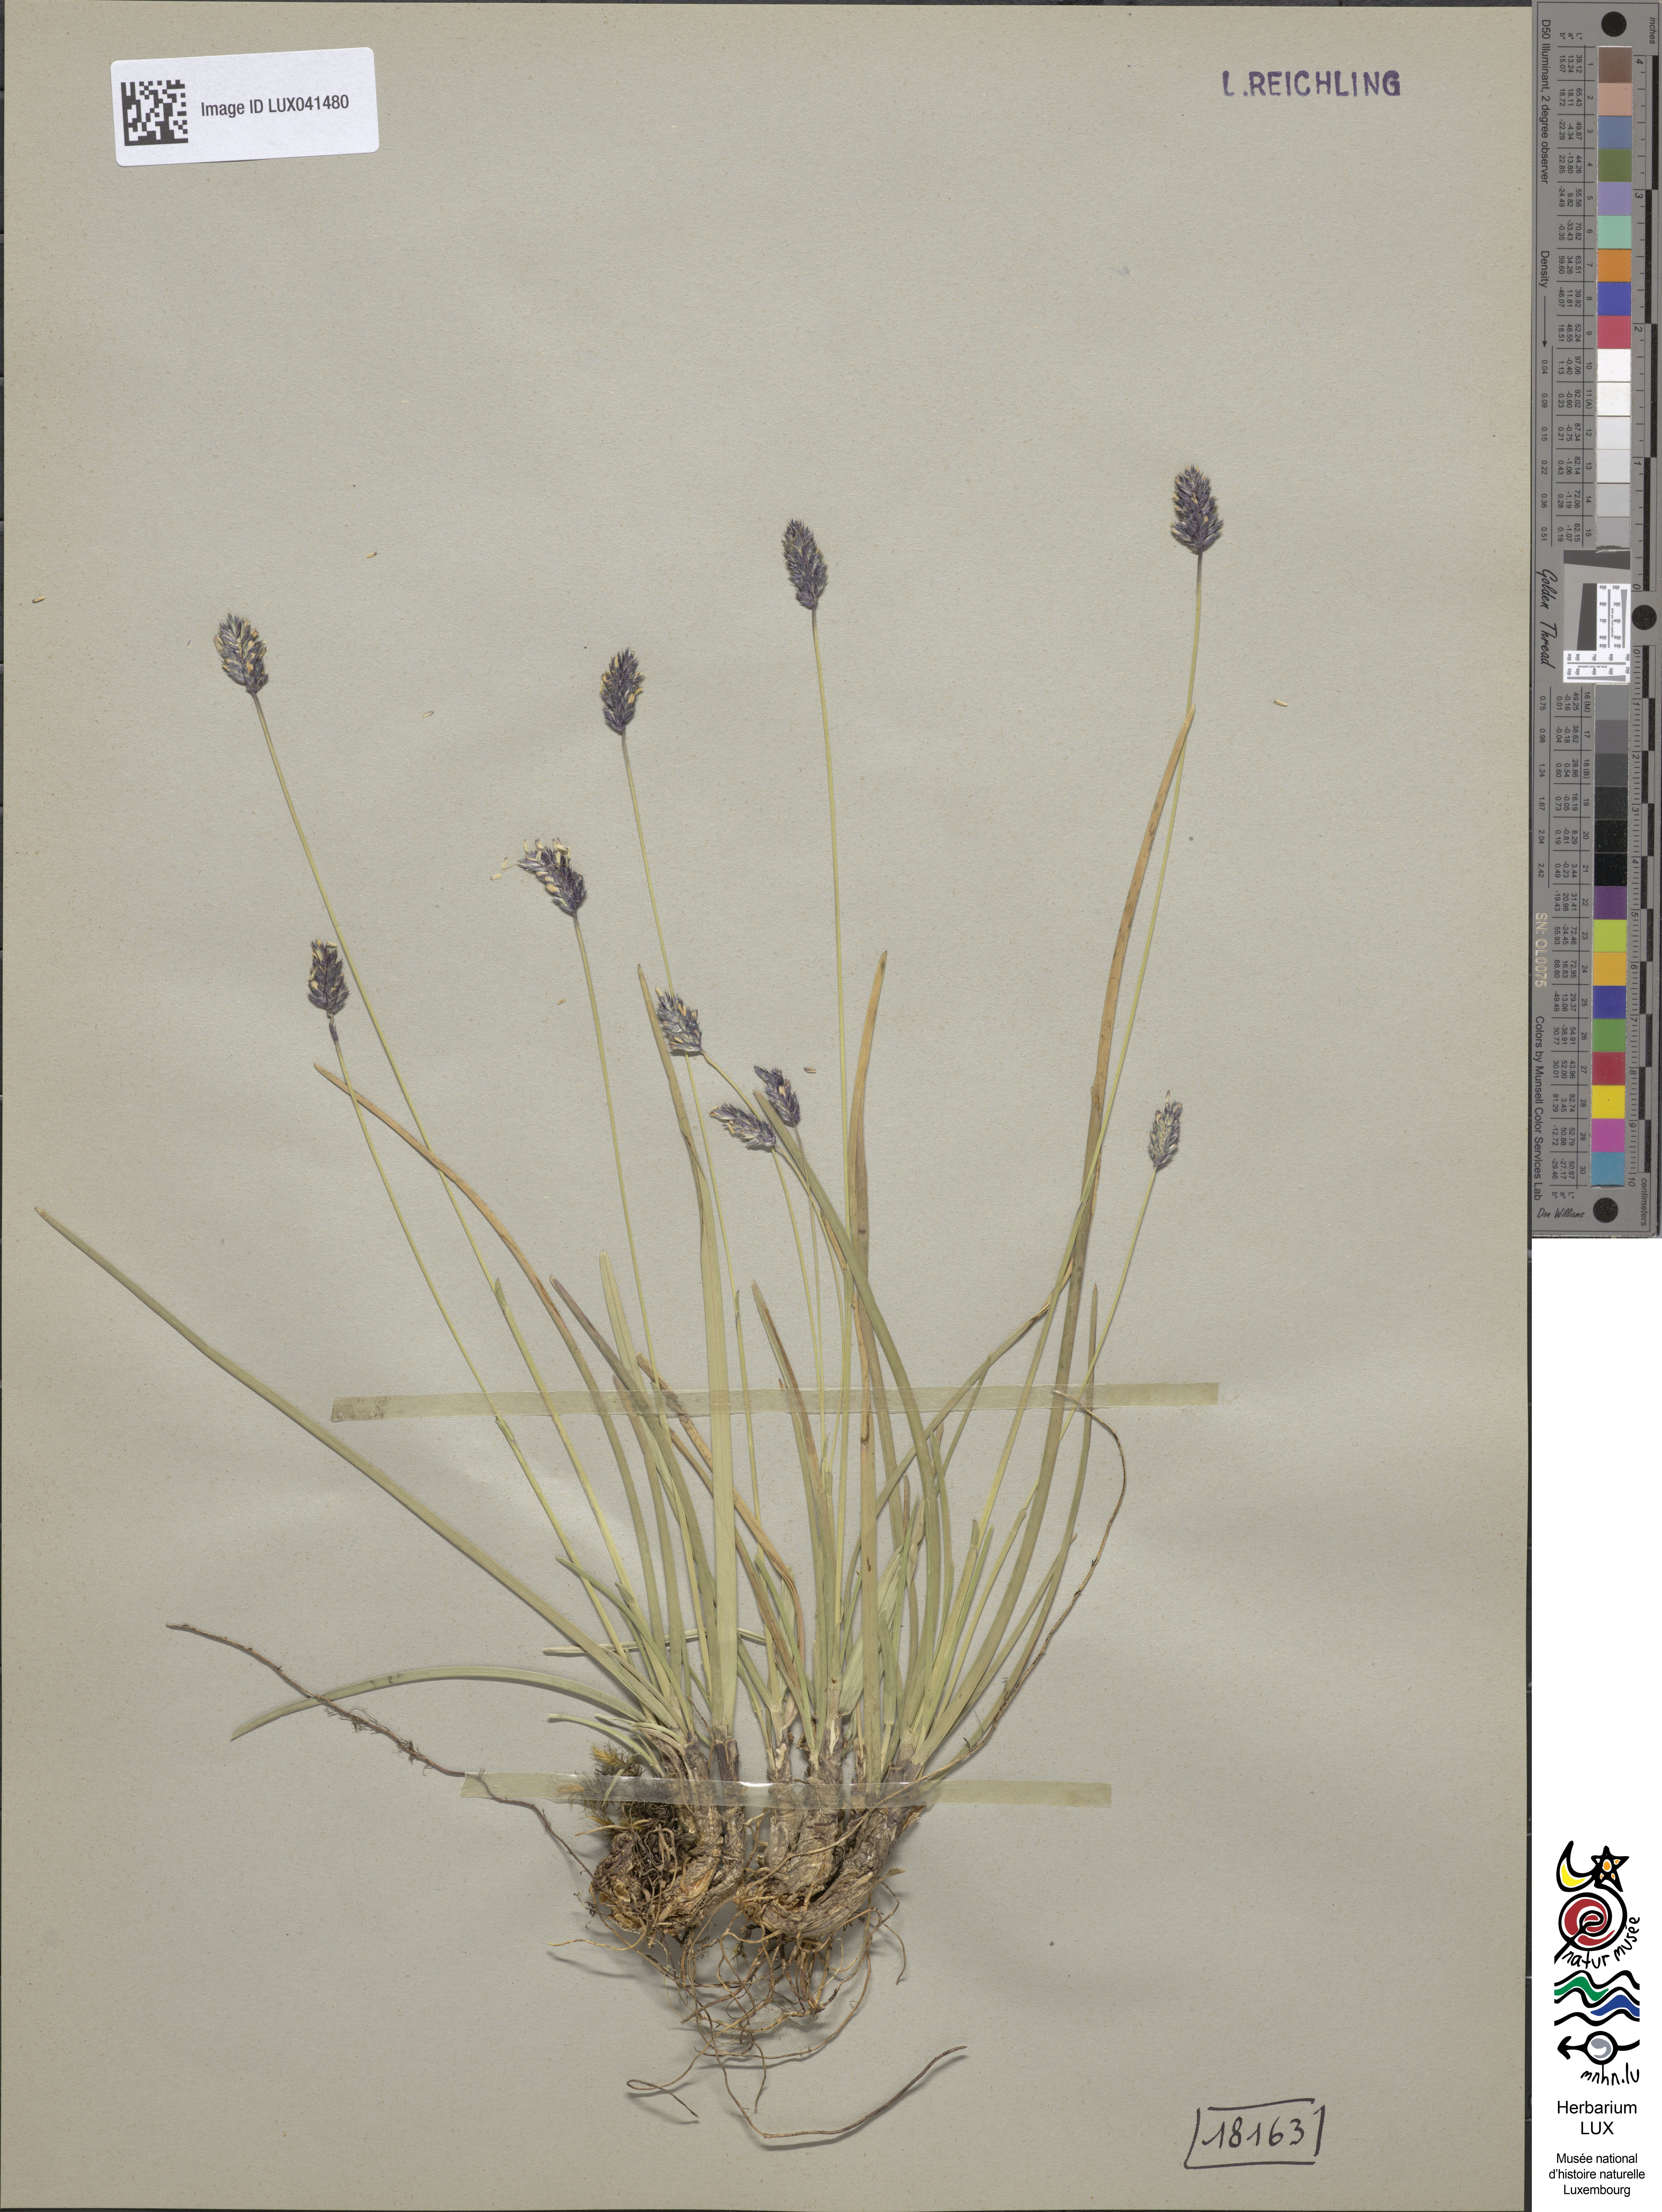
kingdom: Plantae
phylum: Tracheophyta
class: Liliopsida
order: Poales
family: Poaceae
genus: Sesleria
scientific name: Sesleria albicans
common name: Blue moor-grass
